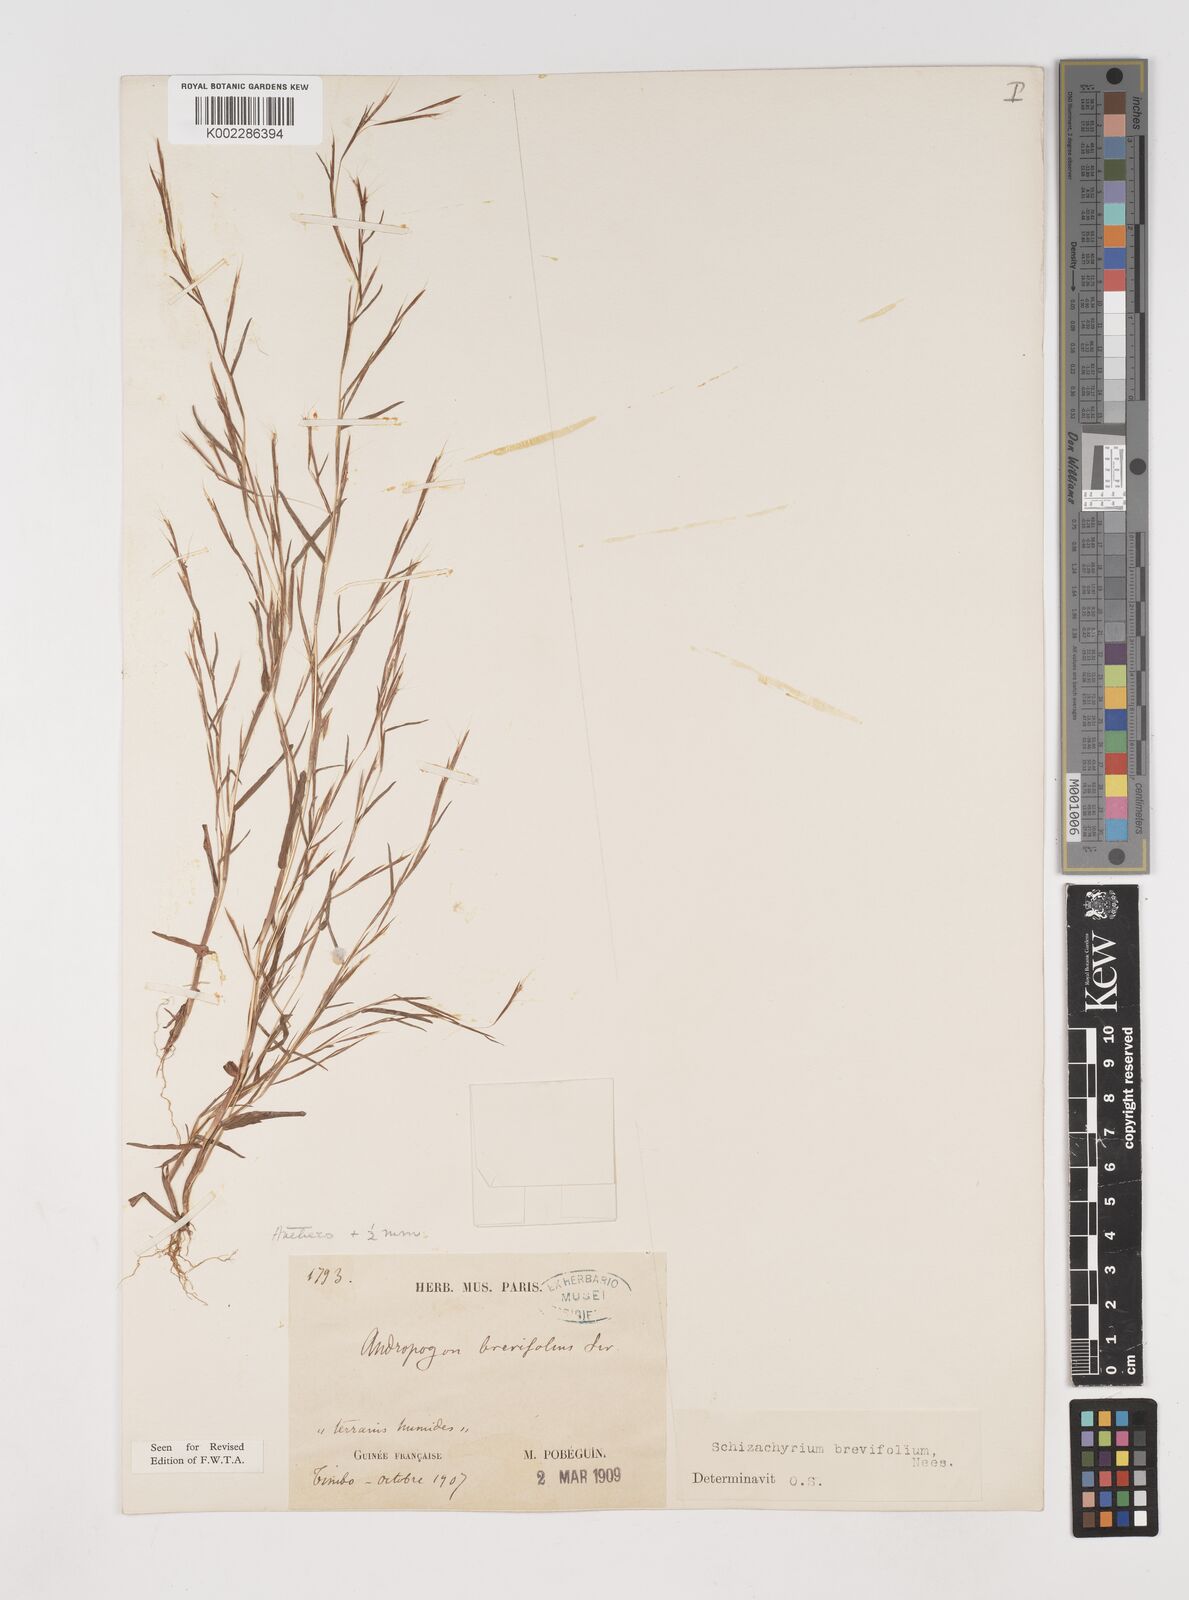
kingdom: Plantae
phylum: Tracheophyta
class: Liliopsida
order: Poales
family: Poaceae
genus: Schizachyrium
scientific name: Schizachyrium brevifolium
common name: Serillo dulce
